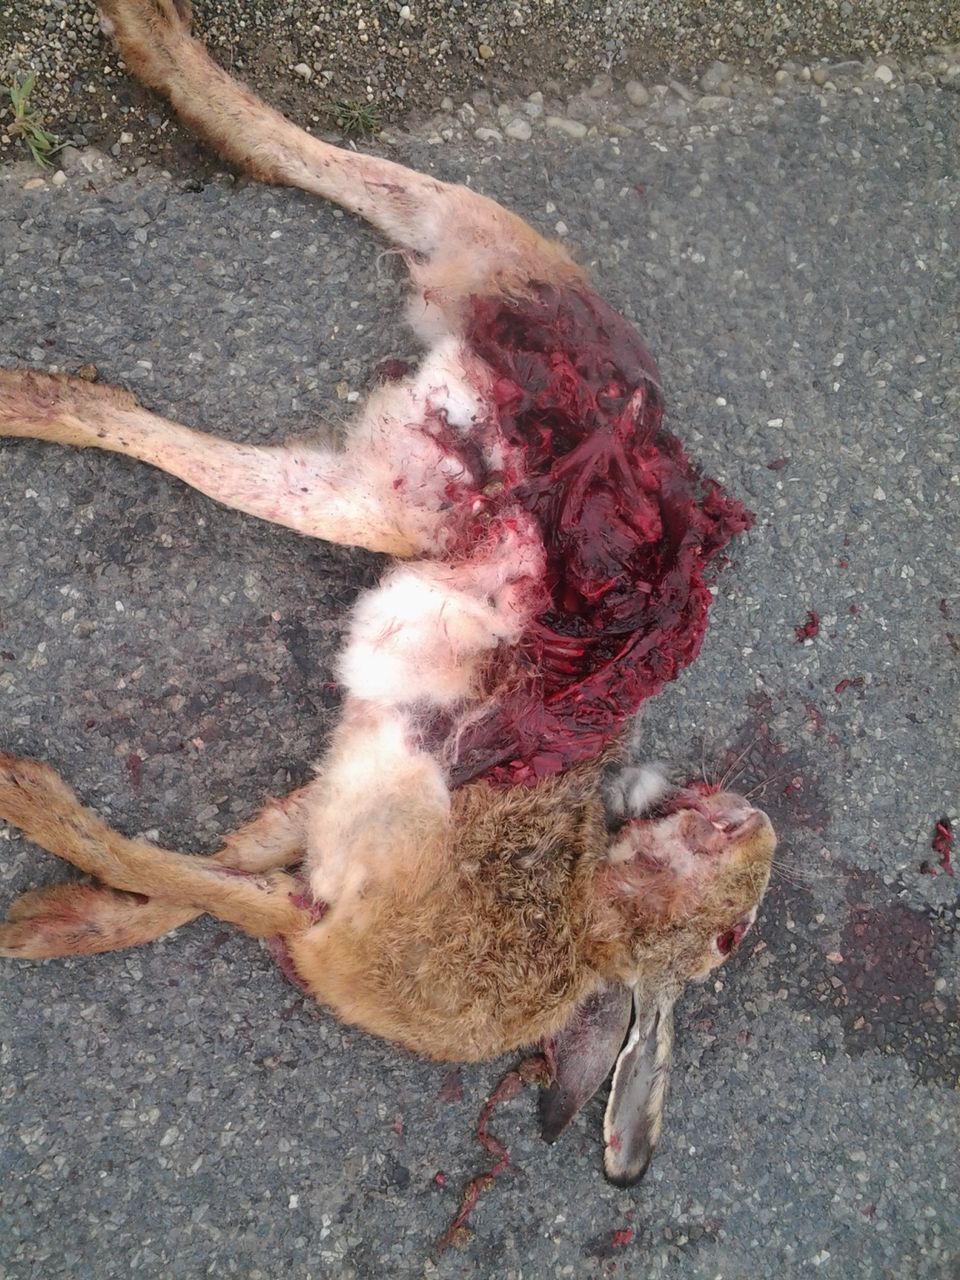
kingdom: Animalia
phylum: Chordata
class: Mammalia
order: Lagomorpha
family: Leporidae
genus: Lepus
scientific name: Lepus europaeus
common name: European hare
